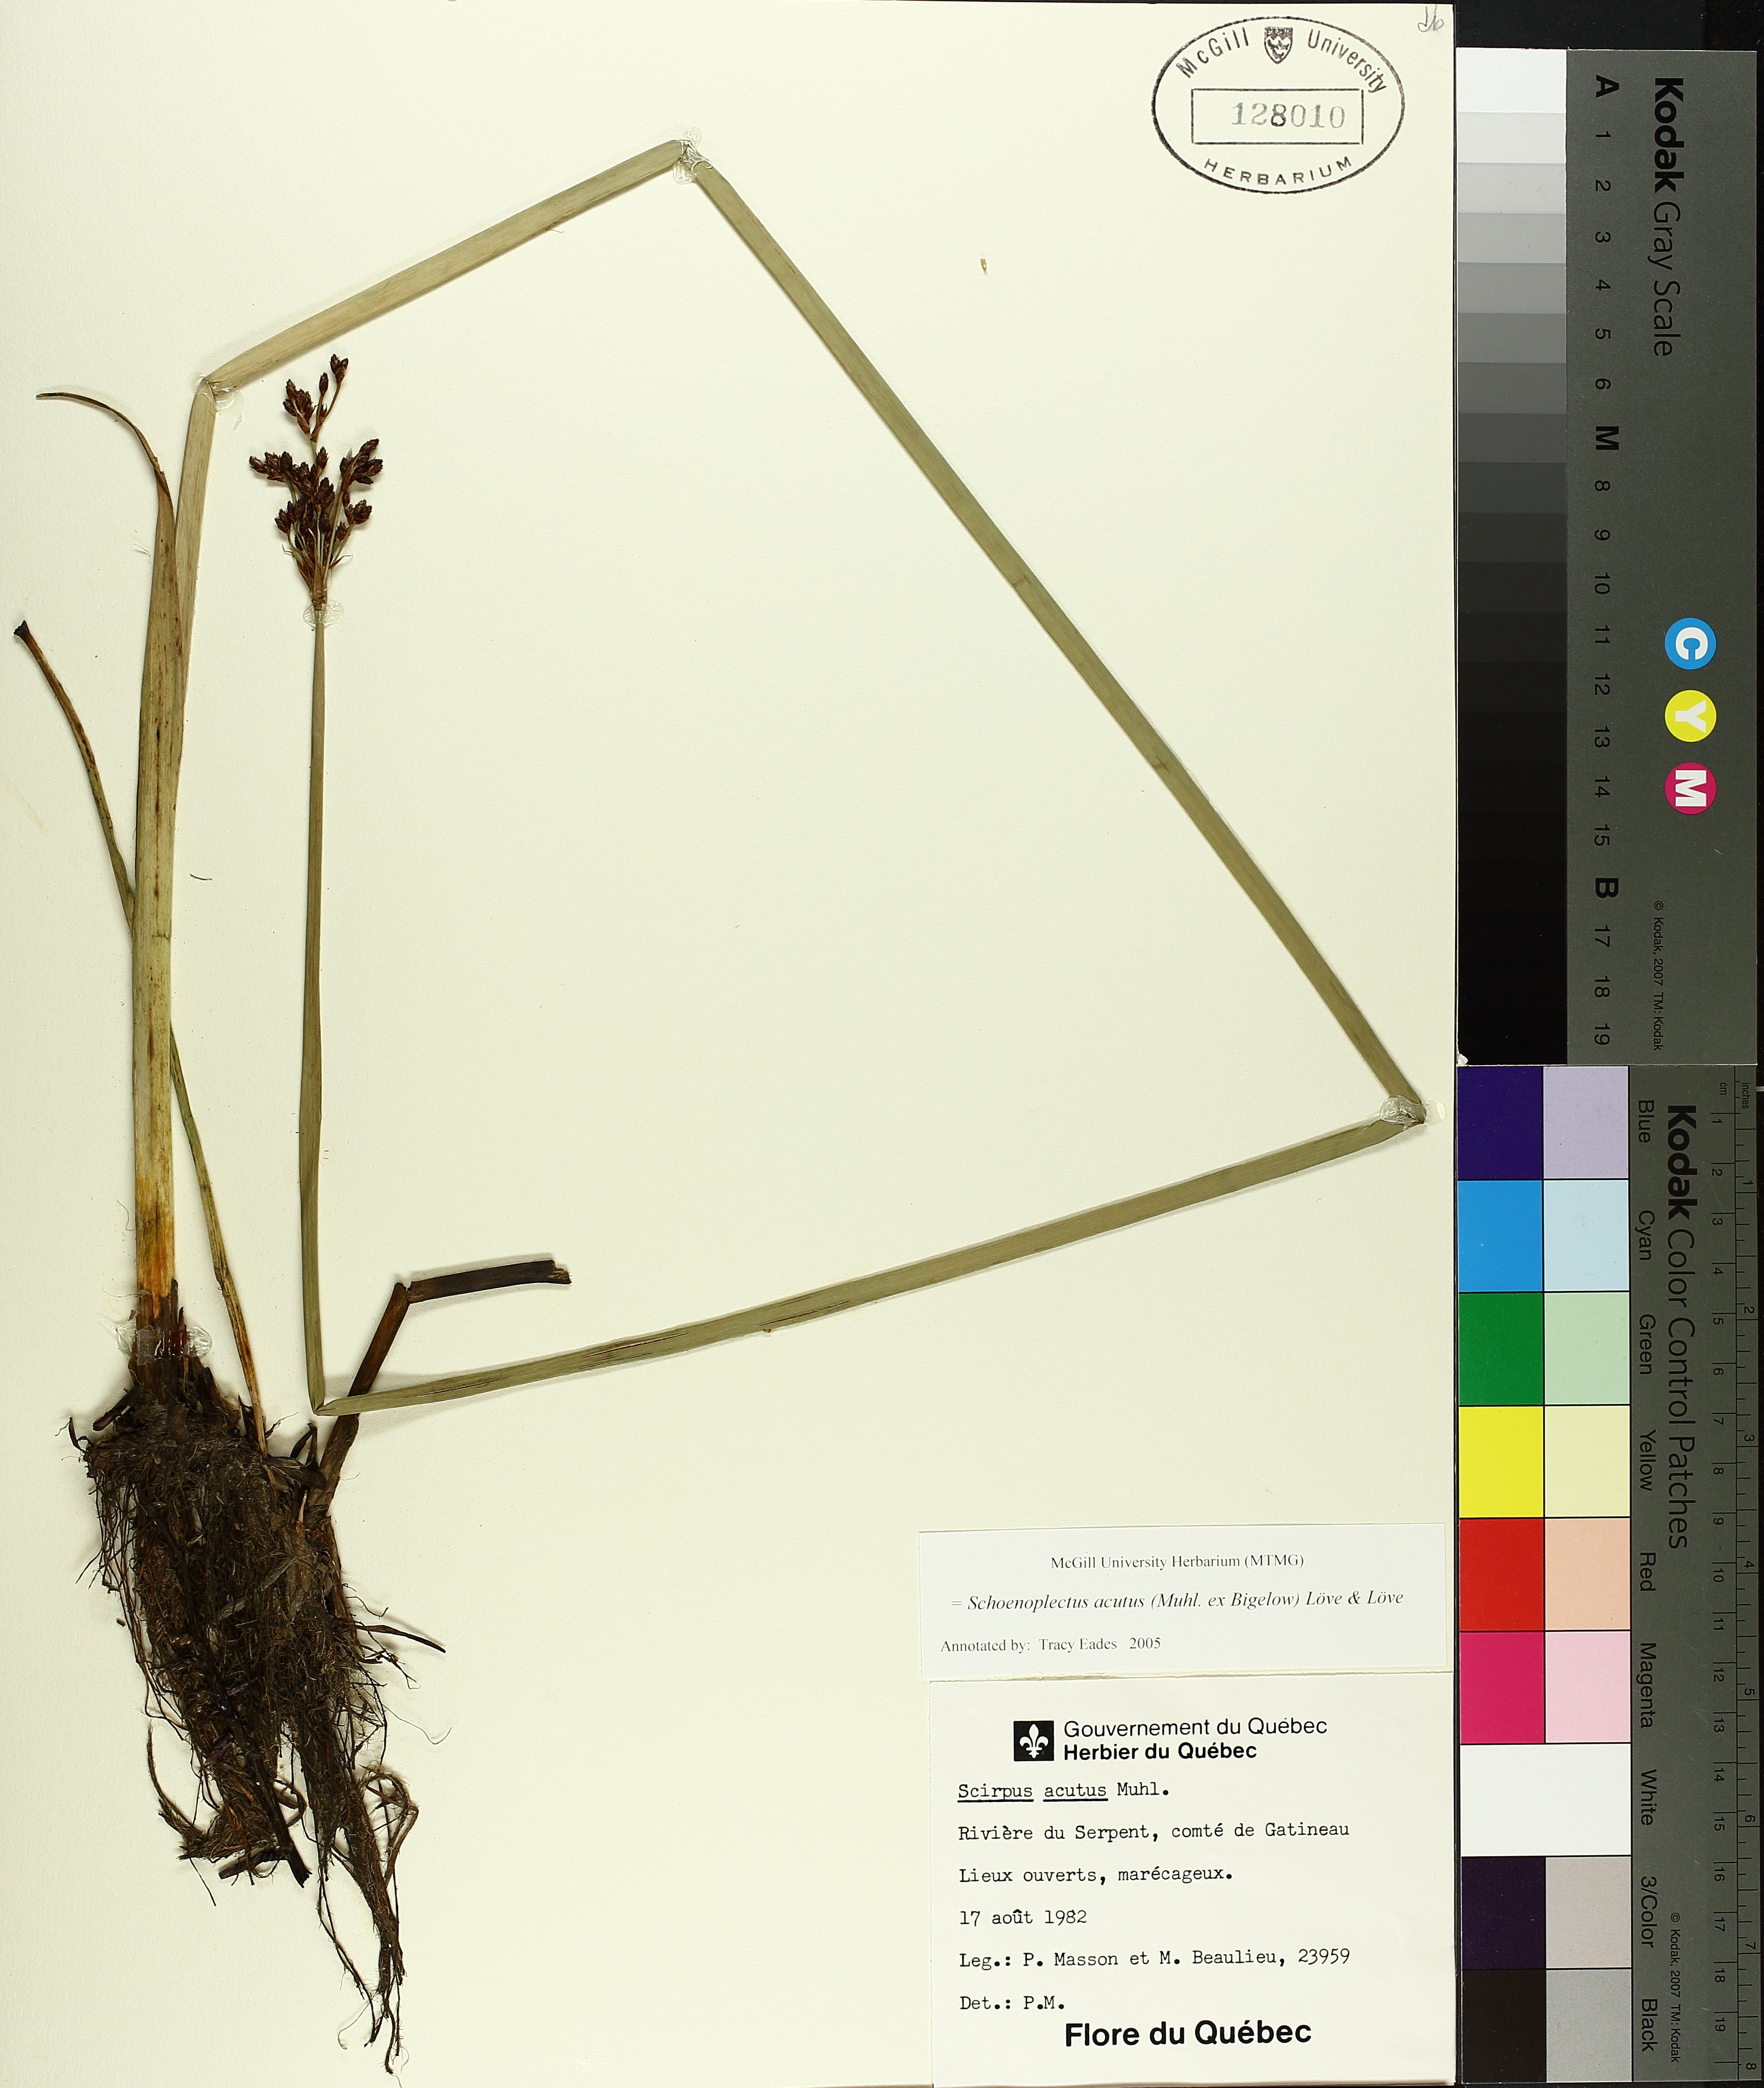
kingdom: Plantae
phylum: Tracheophyta
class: Liliopsida
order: Poales
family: Cyperaceae
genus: Schoenoplectus
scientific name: Schoenoplectus acutus
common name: Hardstem bulrush
